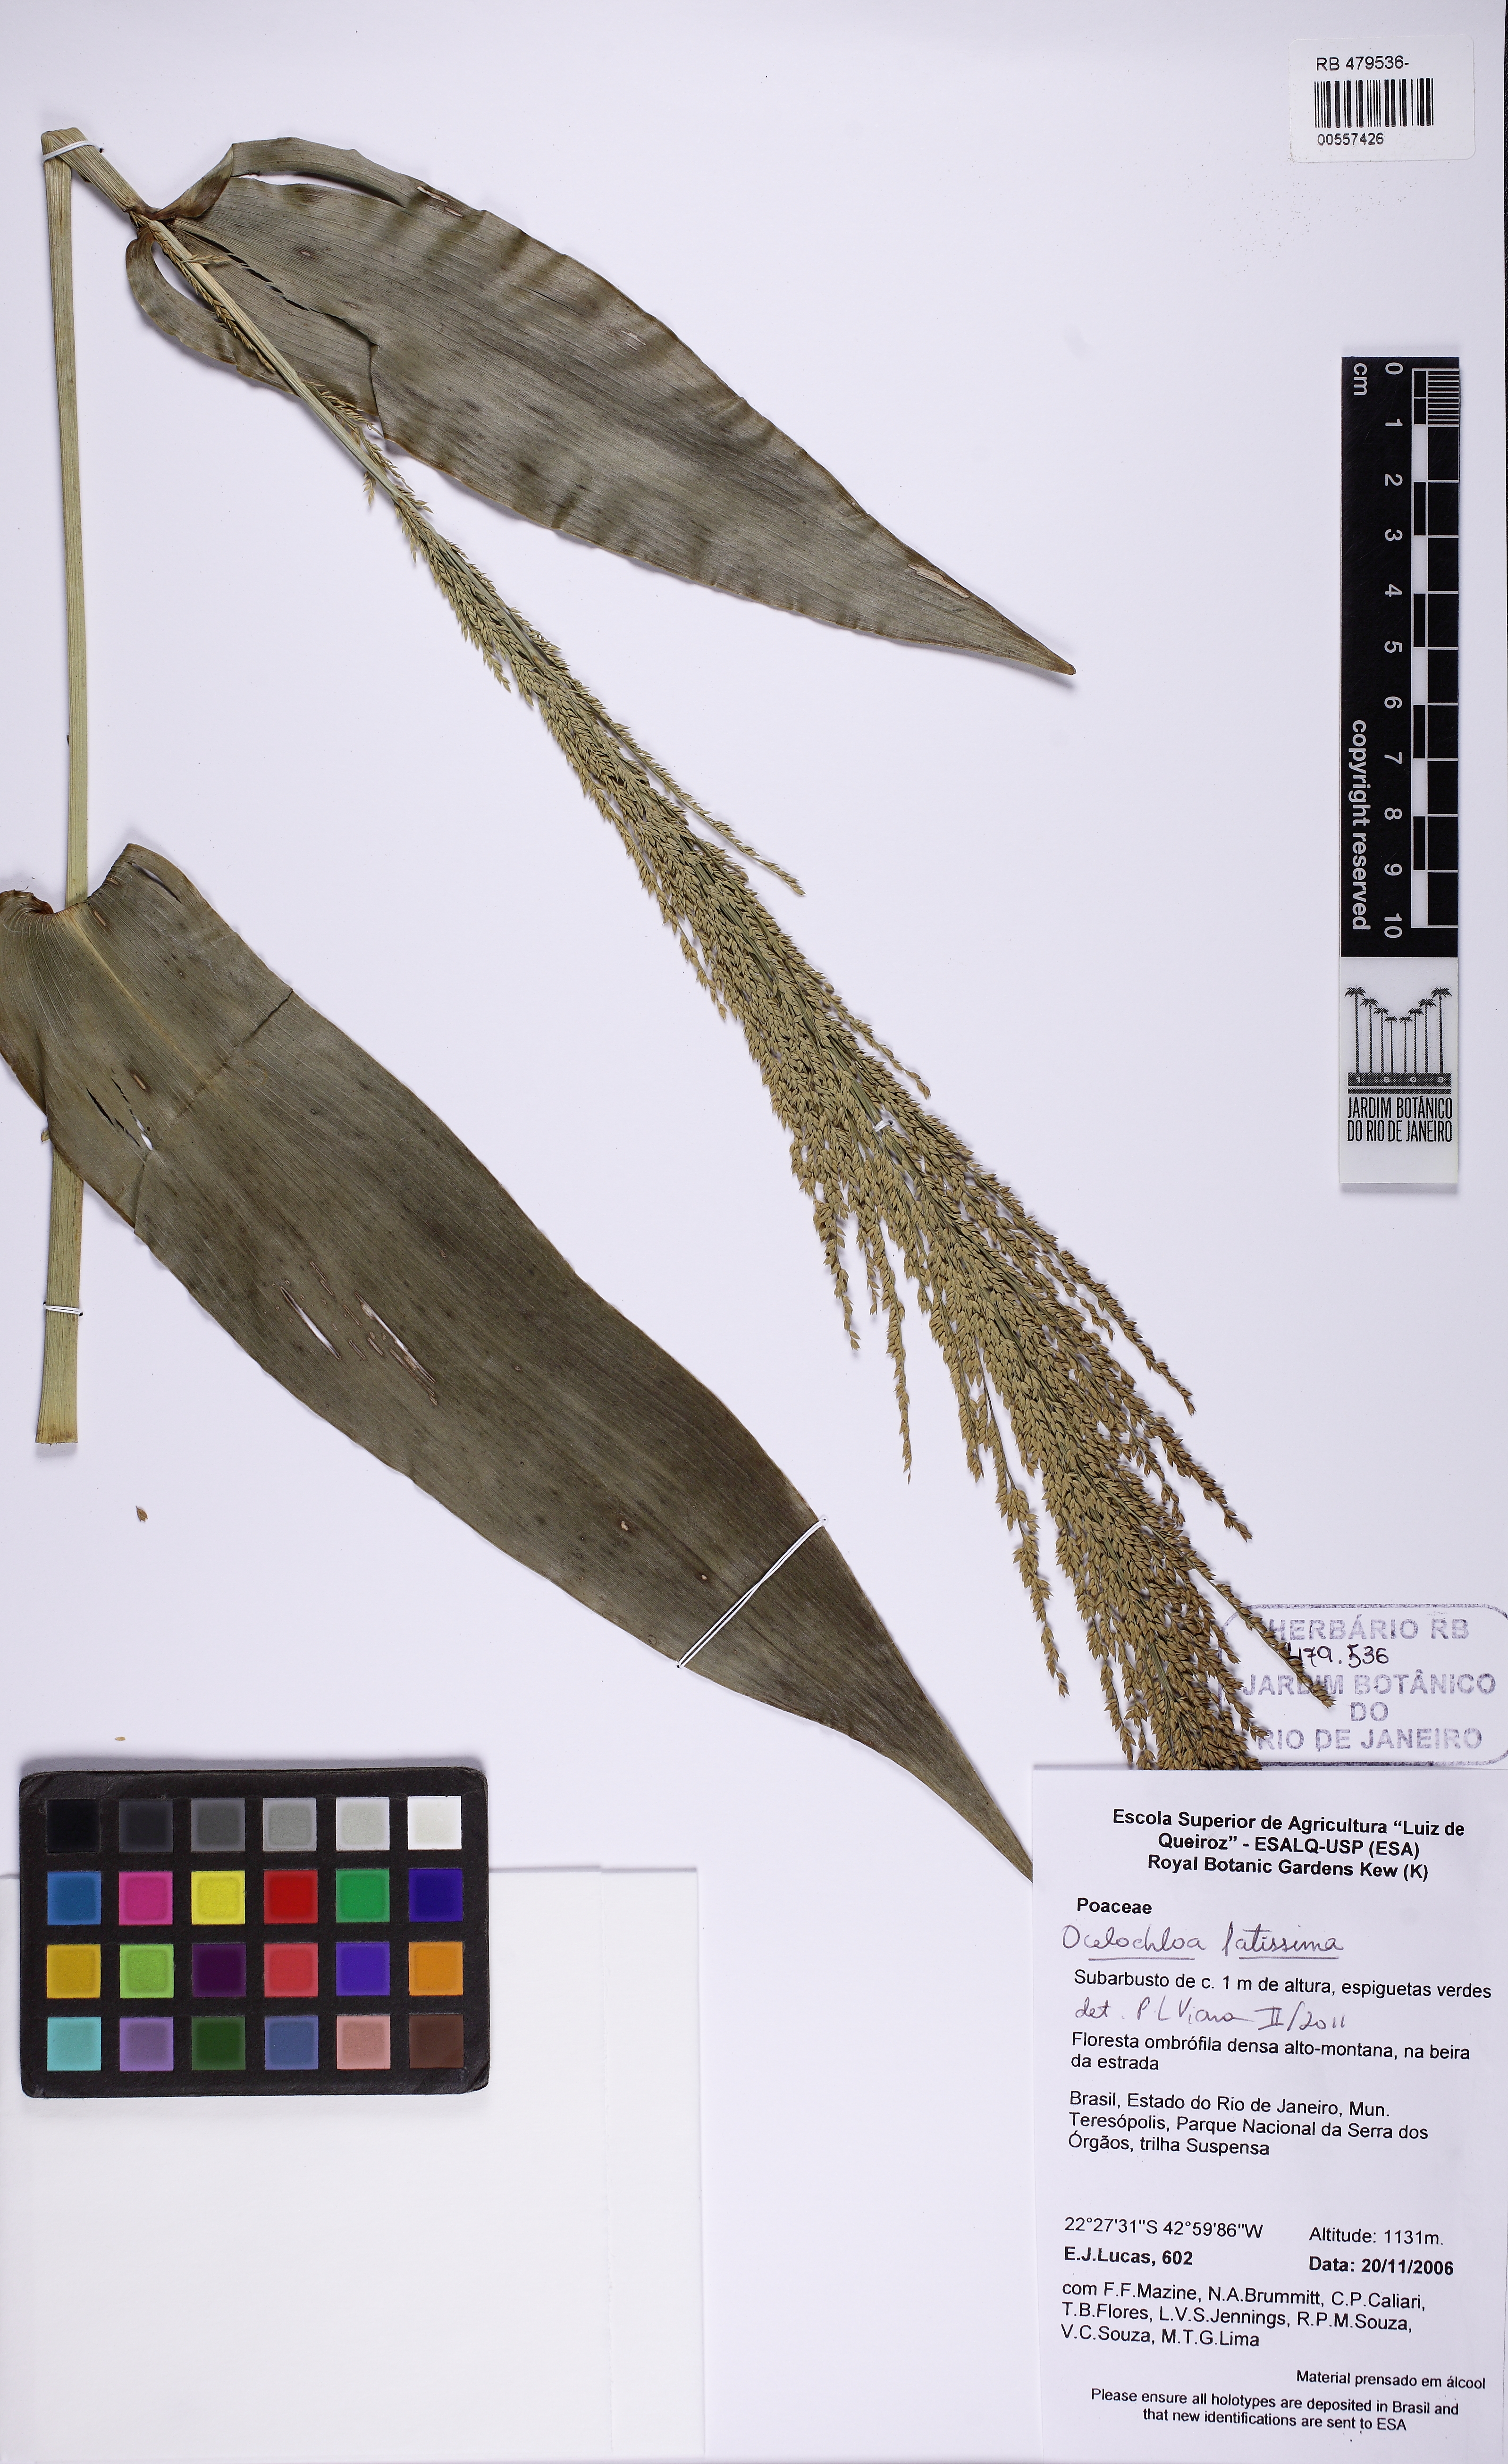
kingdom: Plantae
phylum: Tracheophyta
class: Liliopsida
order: Poales
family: Poaceae
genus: Ocellochloa
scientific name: Ocellochloa latissima
